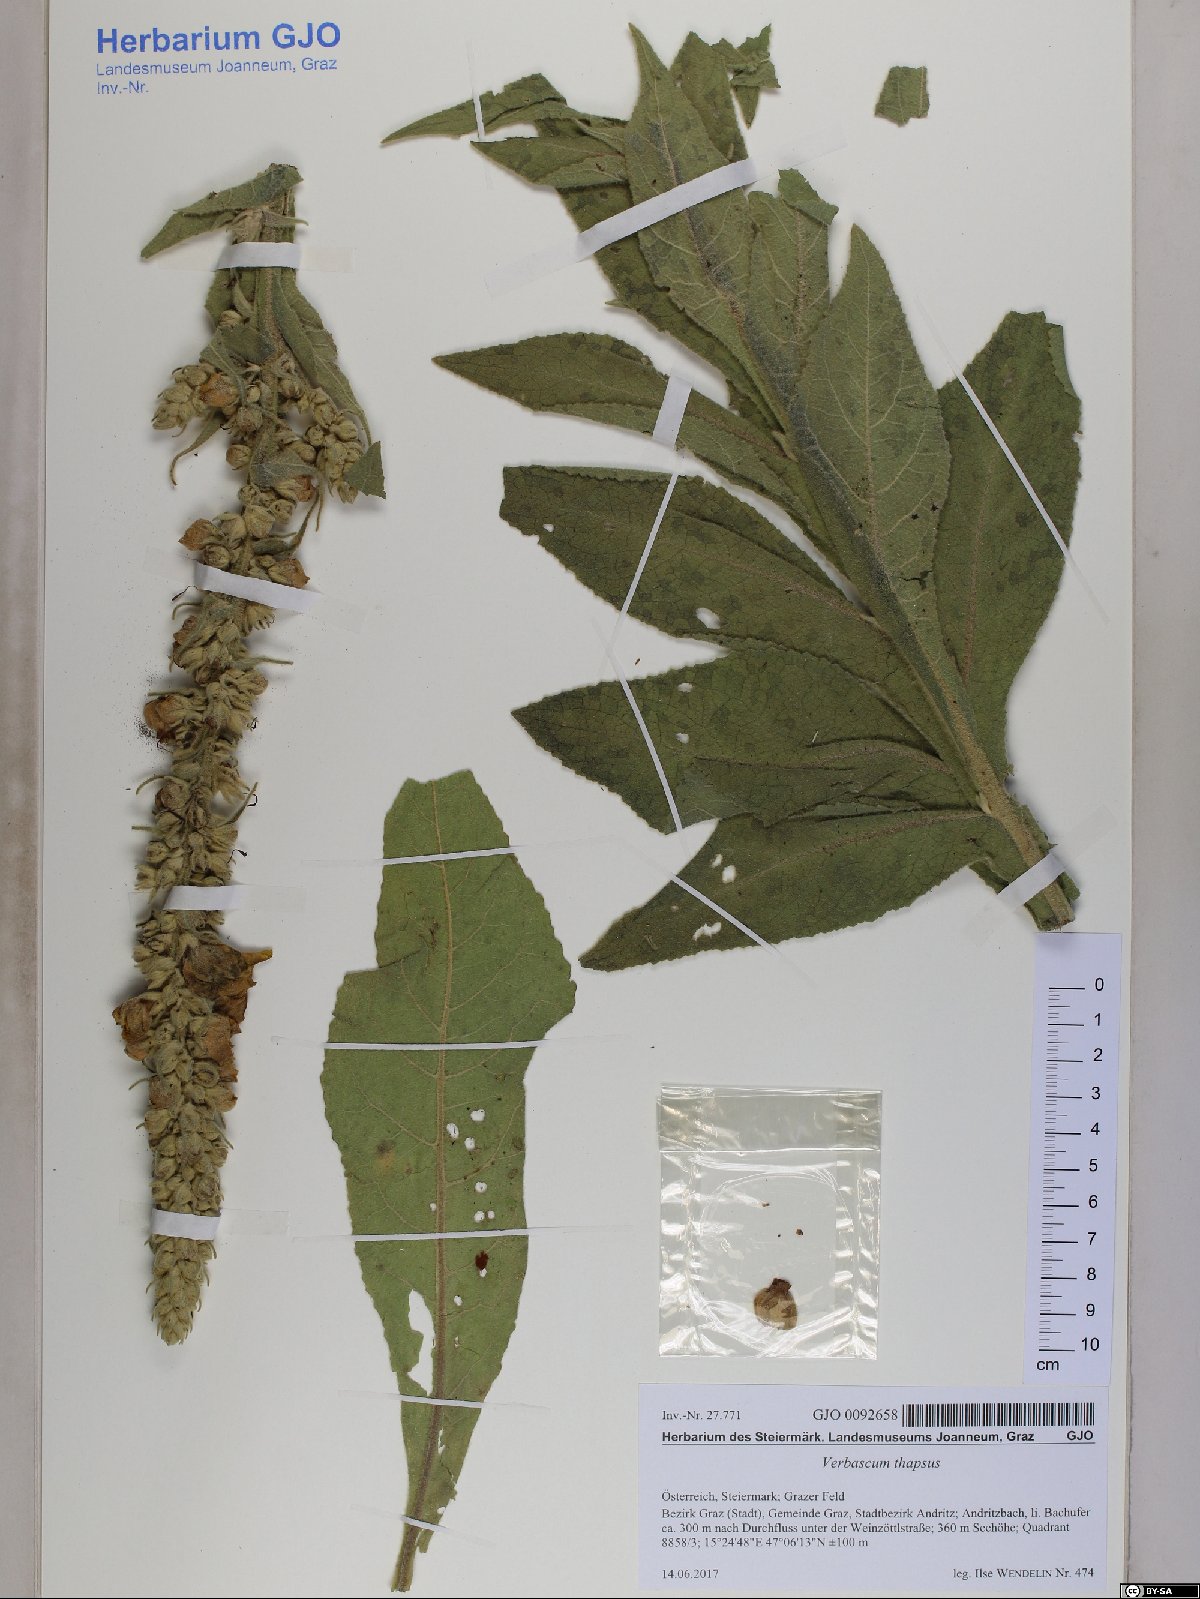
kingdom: Plantae
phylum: Tracheophyta
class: Magnoliopsida
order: Lamiales
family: Scrophulariaceae
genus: Verbascum
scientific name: Verbascum thapsus
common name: Common mullein
